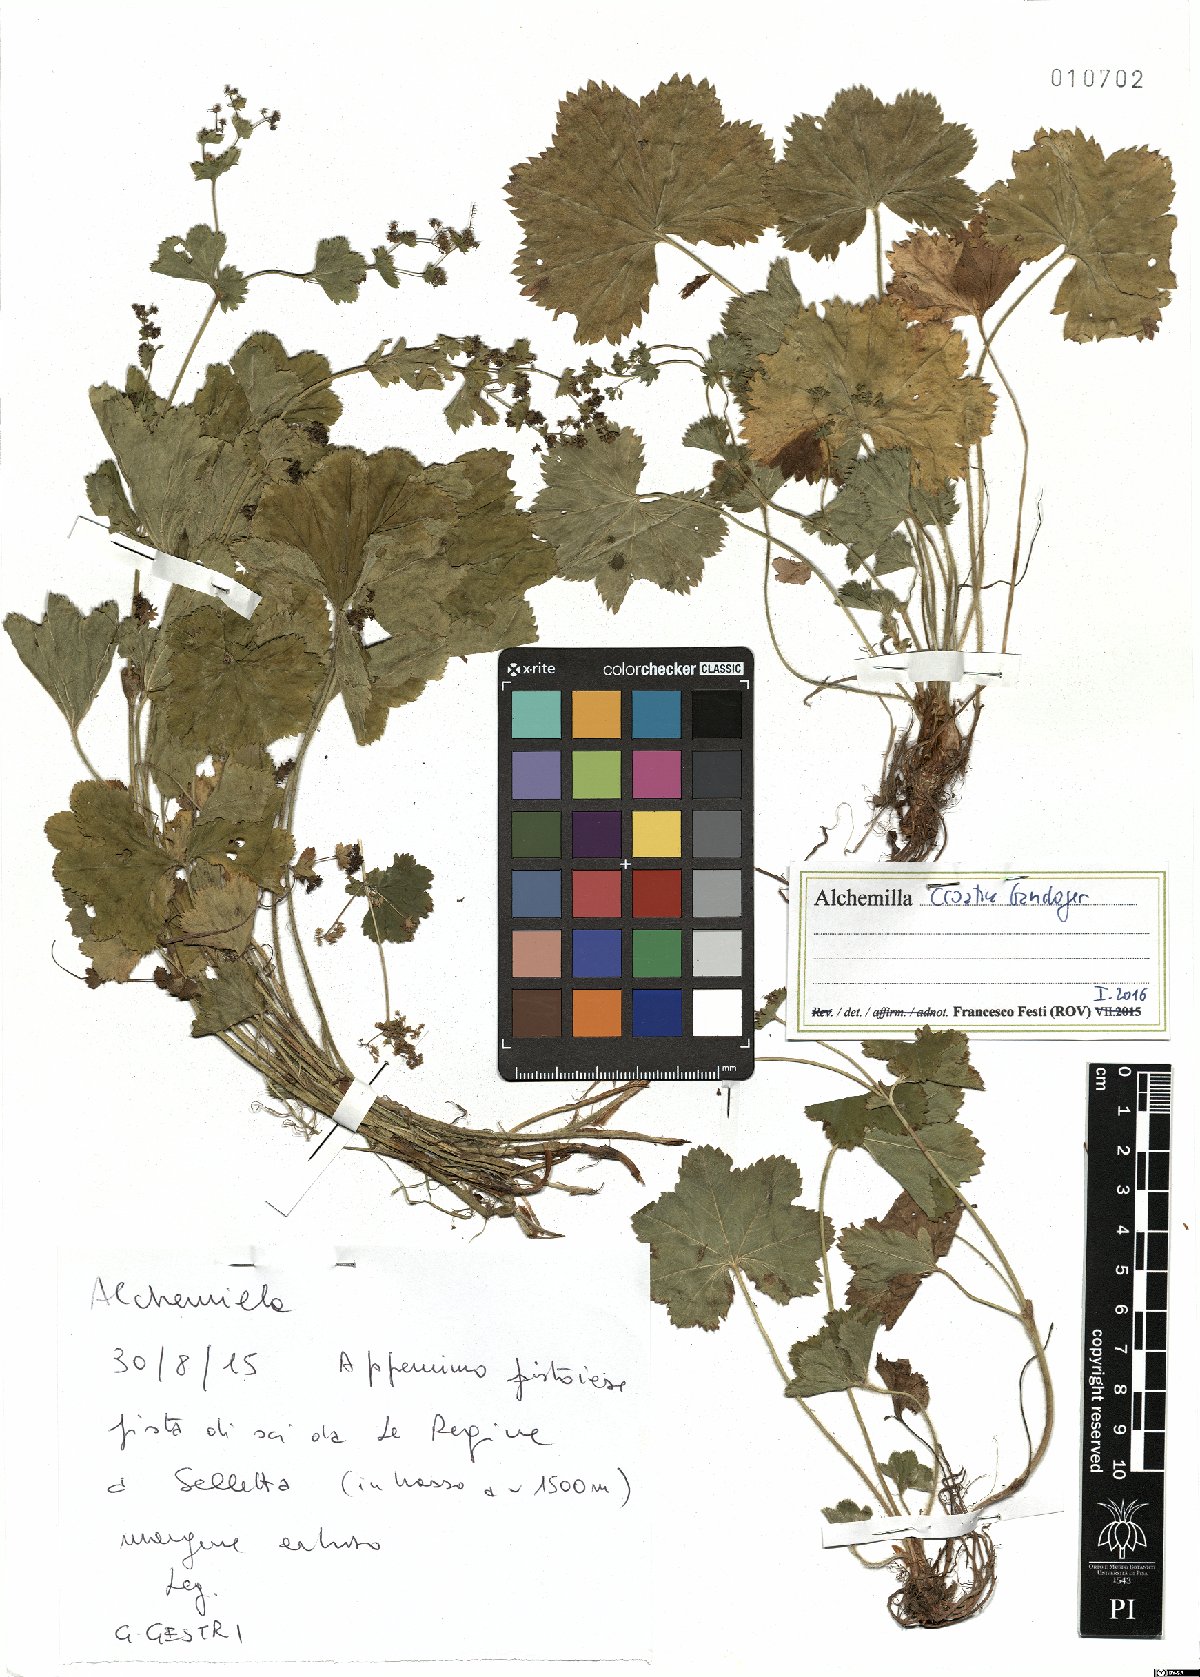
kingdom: Plantae
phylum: Tracheophyta
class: Magnoliopsida
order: Rosales
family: Rosaceae
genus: Alchemilla
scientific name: Alchemilla croatica
